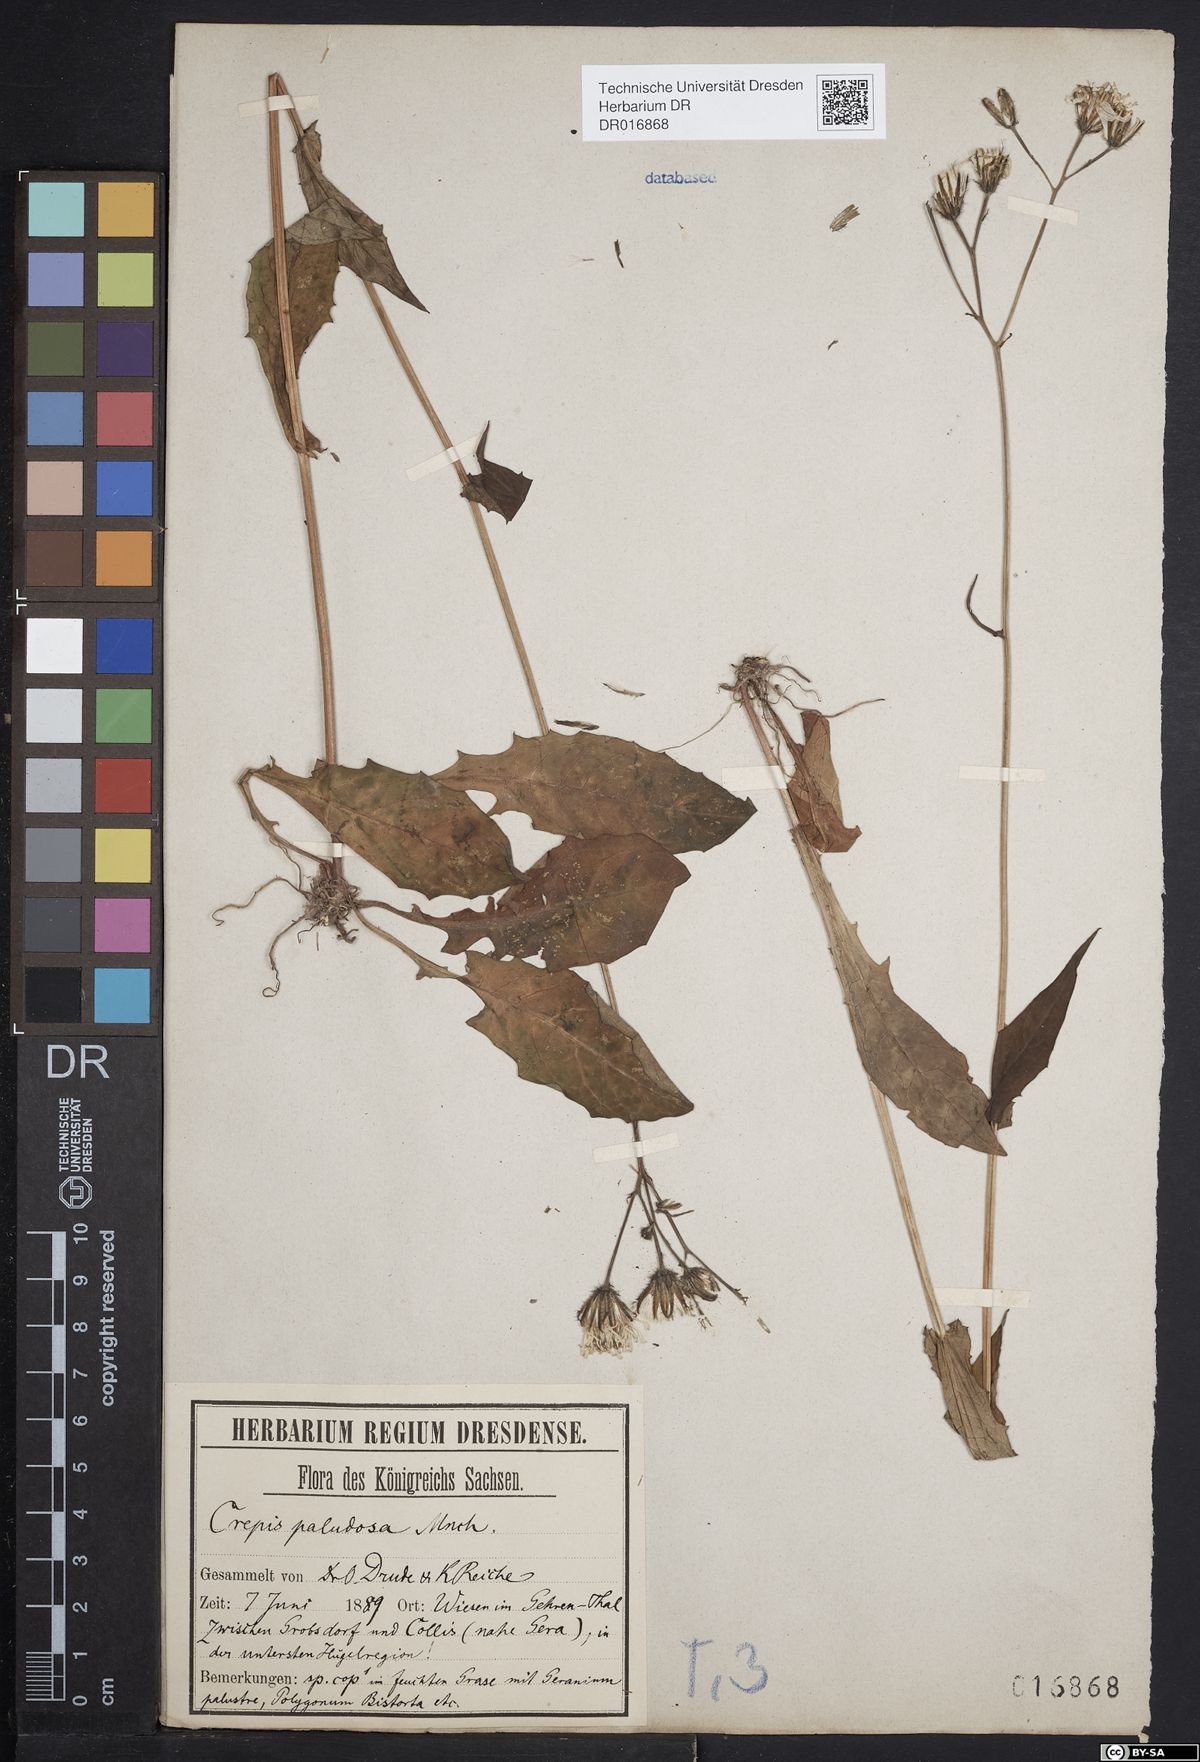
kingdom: Plantae
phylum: Tracheophyta
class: Magnoliopsida
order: Asterales
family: Asteraceae
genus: Crepis
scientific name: Crepis paludosa
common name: Marsh hawk's-beard
